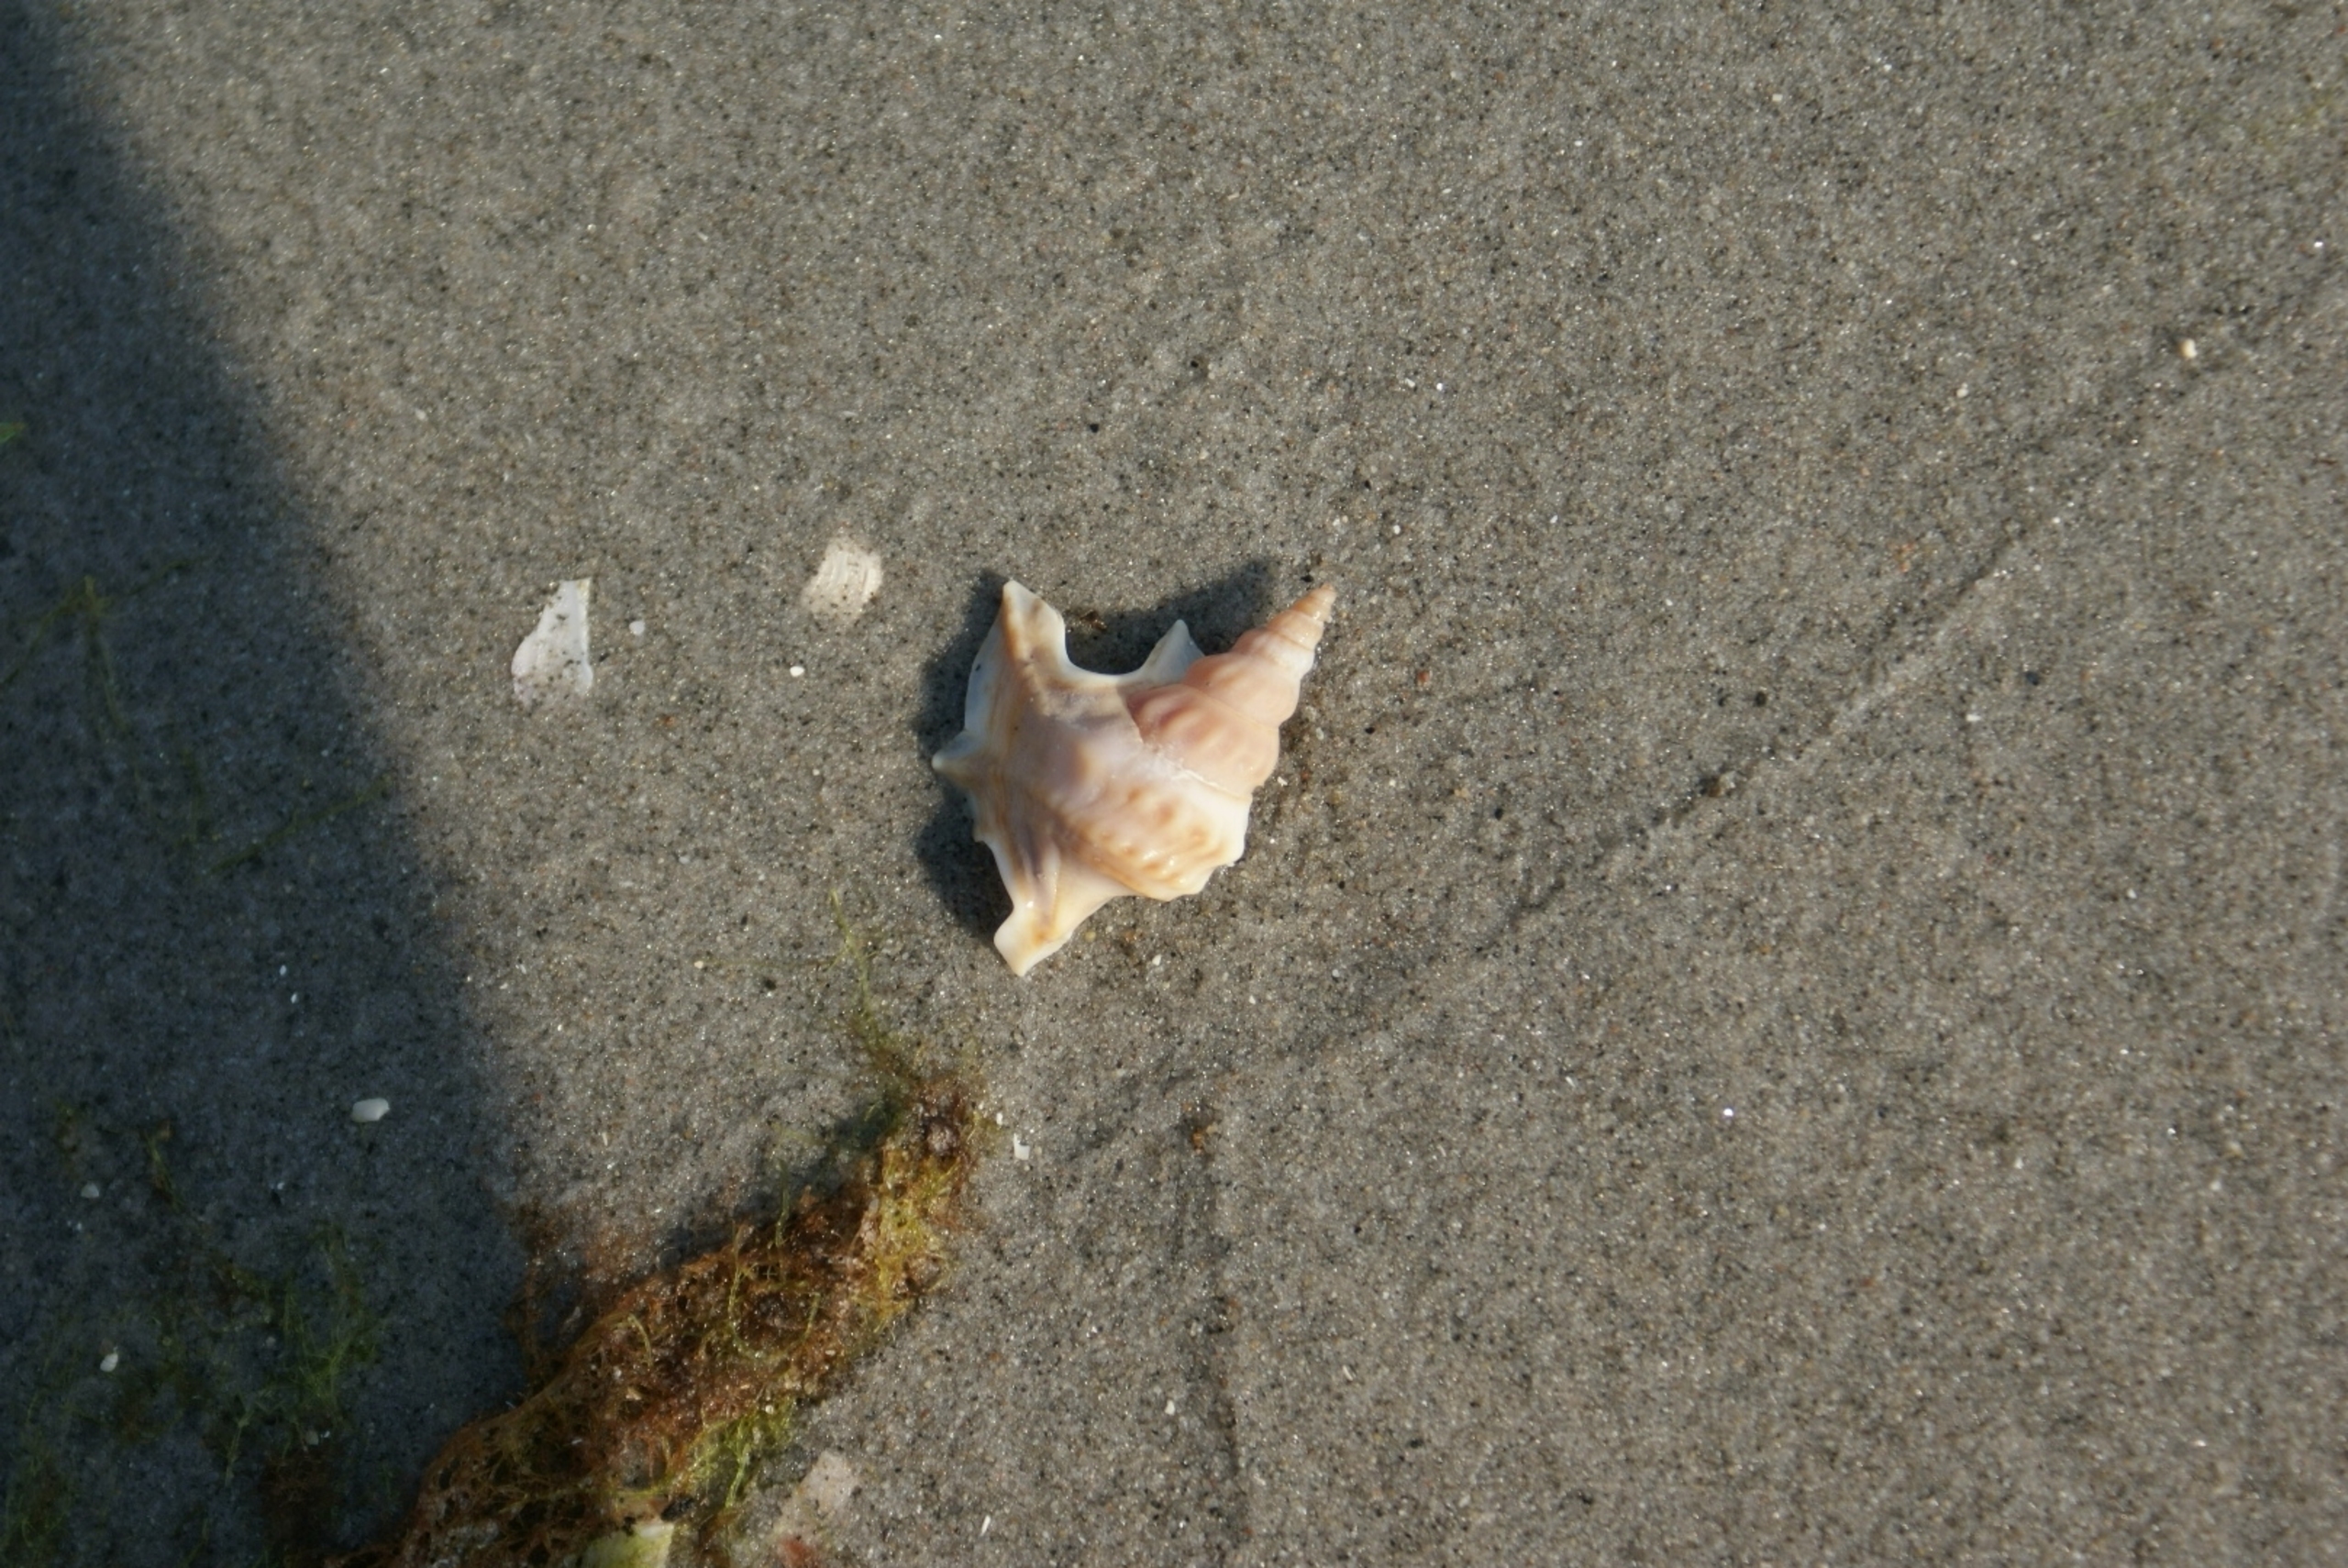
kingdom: Animalia
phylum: Mollusca
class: Gastropoda
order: Littorinimorpha
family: Aporrhaidae
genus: Aporrhais
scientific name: Aporrhais pespelecani
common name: Pelikanfod
